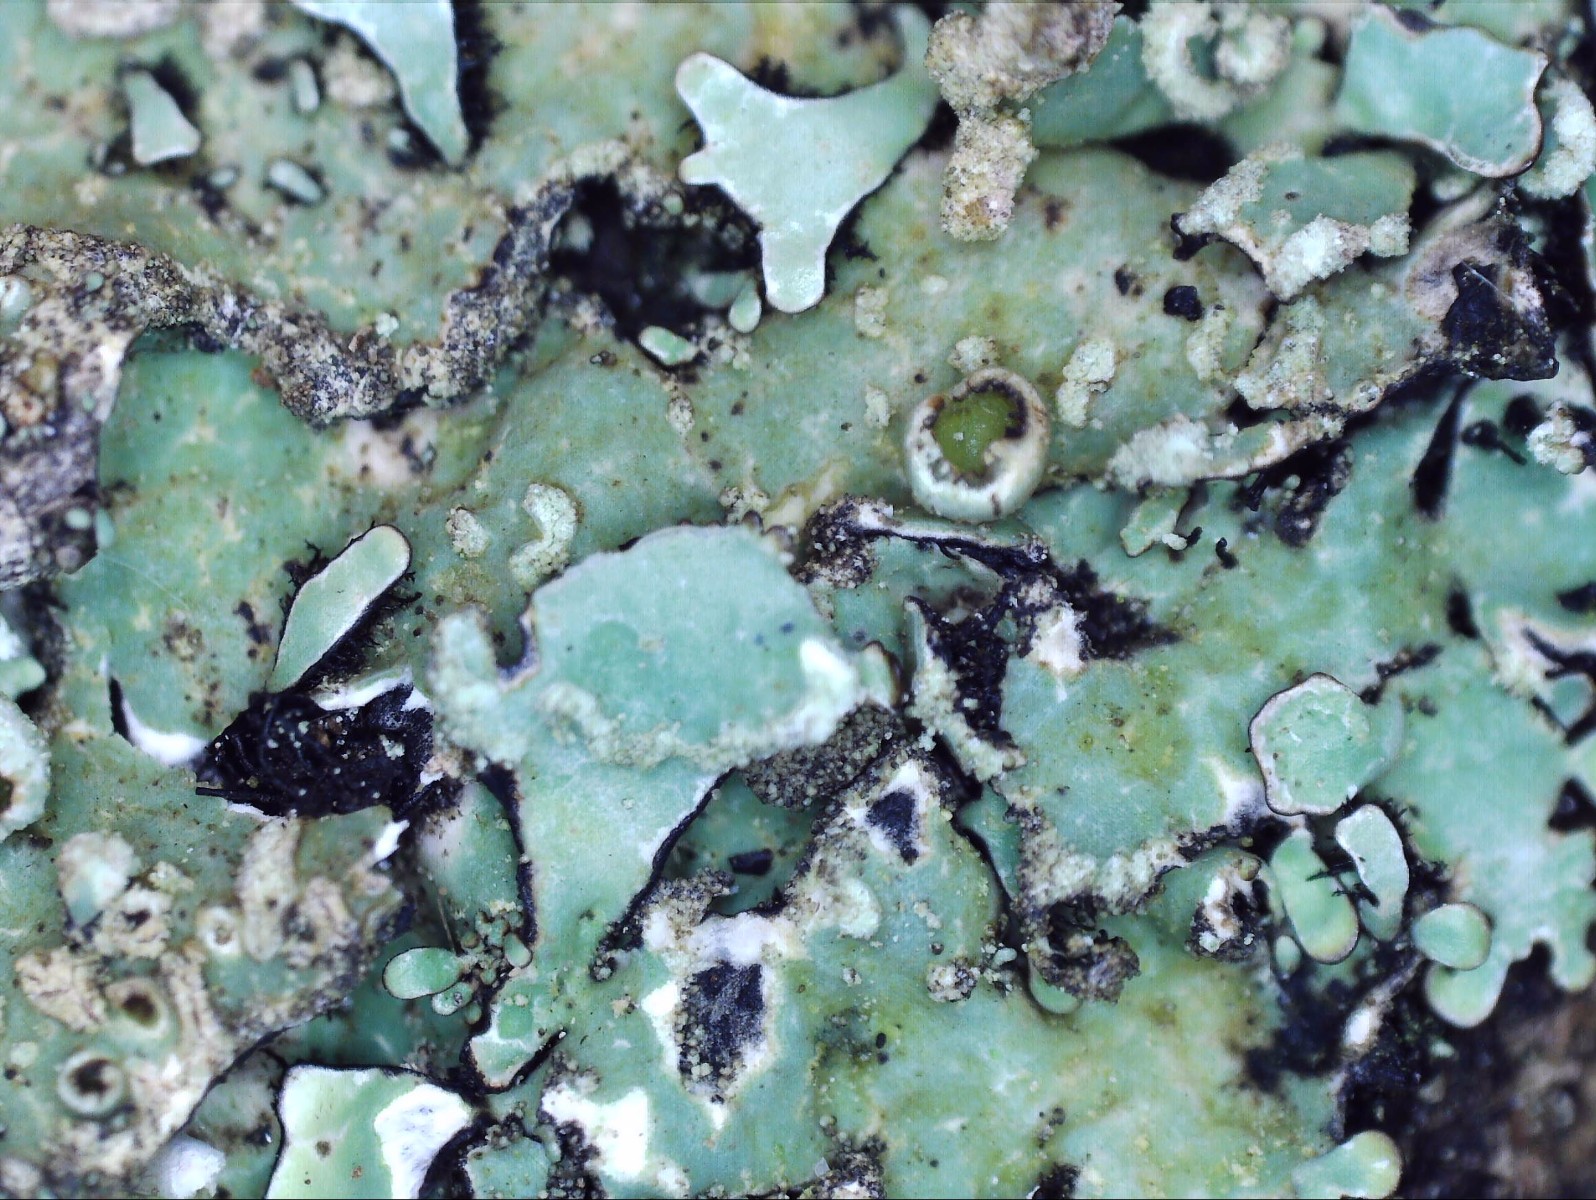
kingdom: Fungi
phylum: Ascomycota
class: Lecanoromycetes
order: Lecanorales
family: Parmeliaceae
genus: Parmelia
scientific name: Parmelia sulcata
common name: rynket skållav
